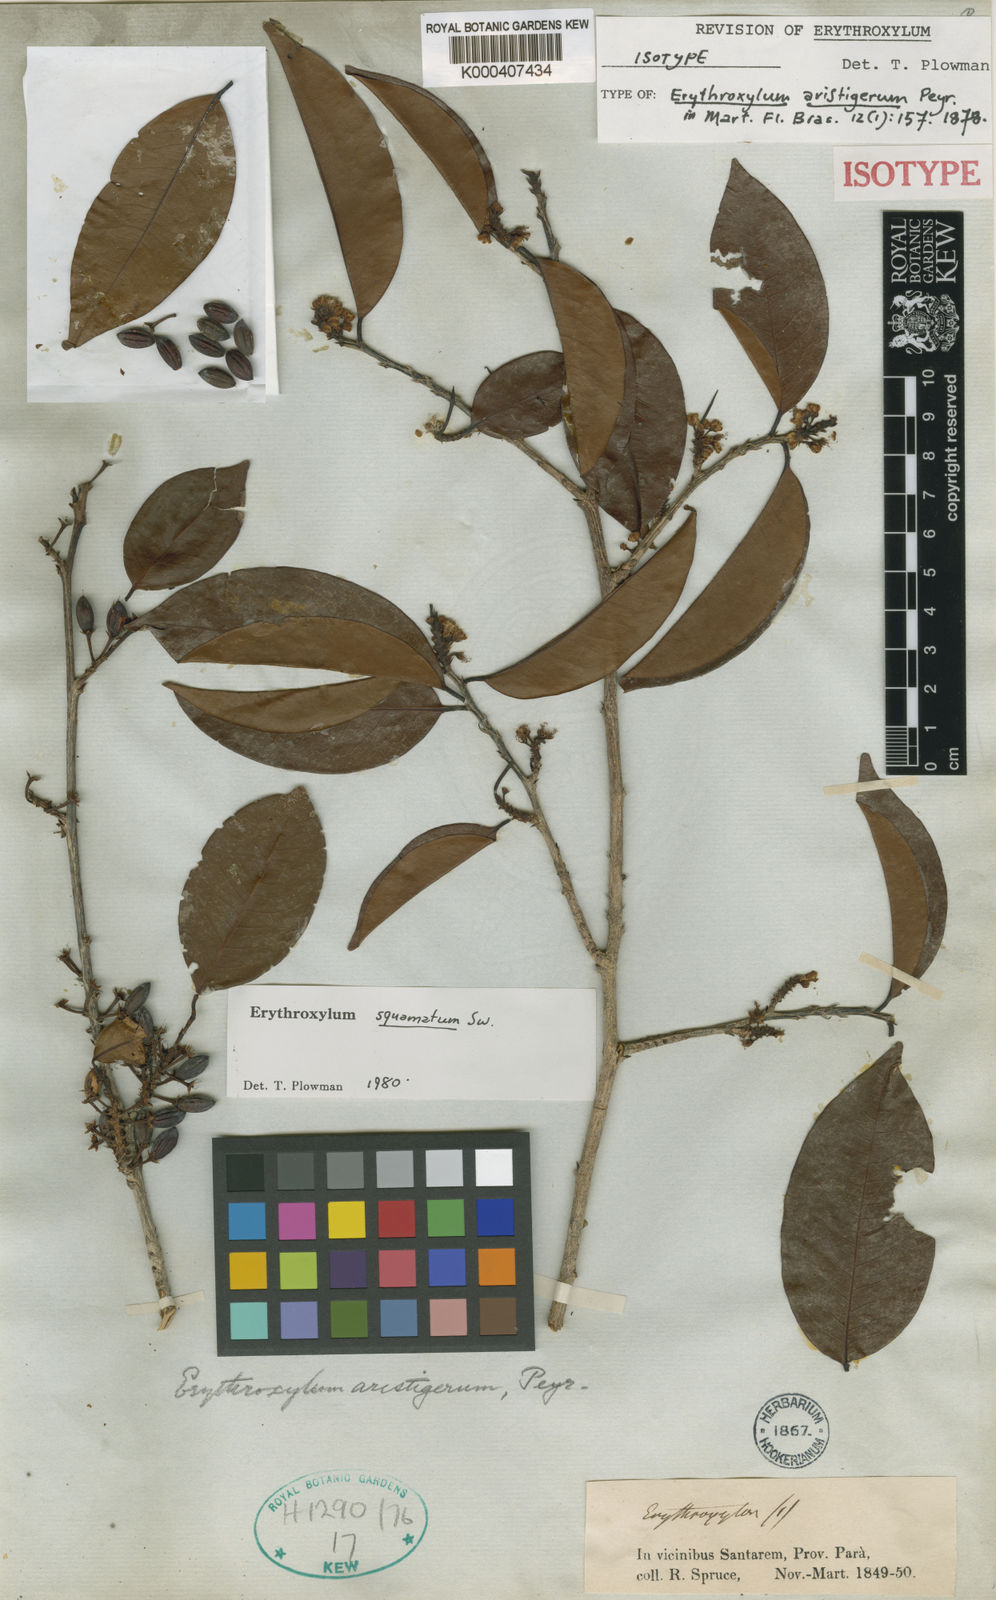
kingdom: Plantae
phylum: Tracheophyta
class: Magnoliopsida
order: Malpighiales
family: Erythroxylaceae
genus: Erythroxylum
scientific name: Erythroxylum squamatum
